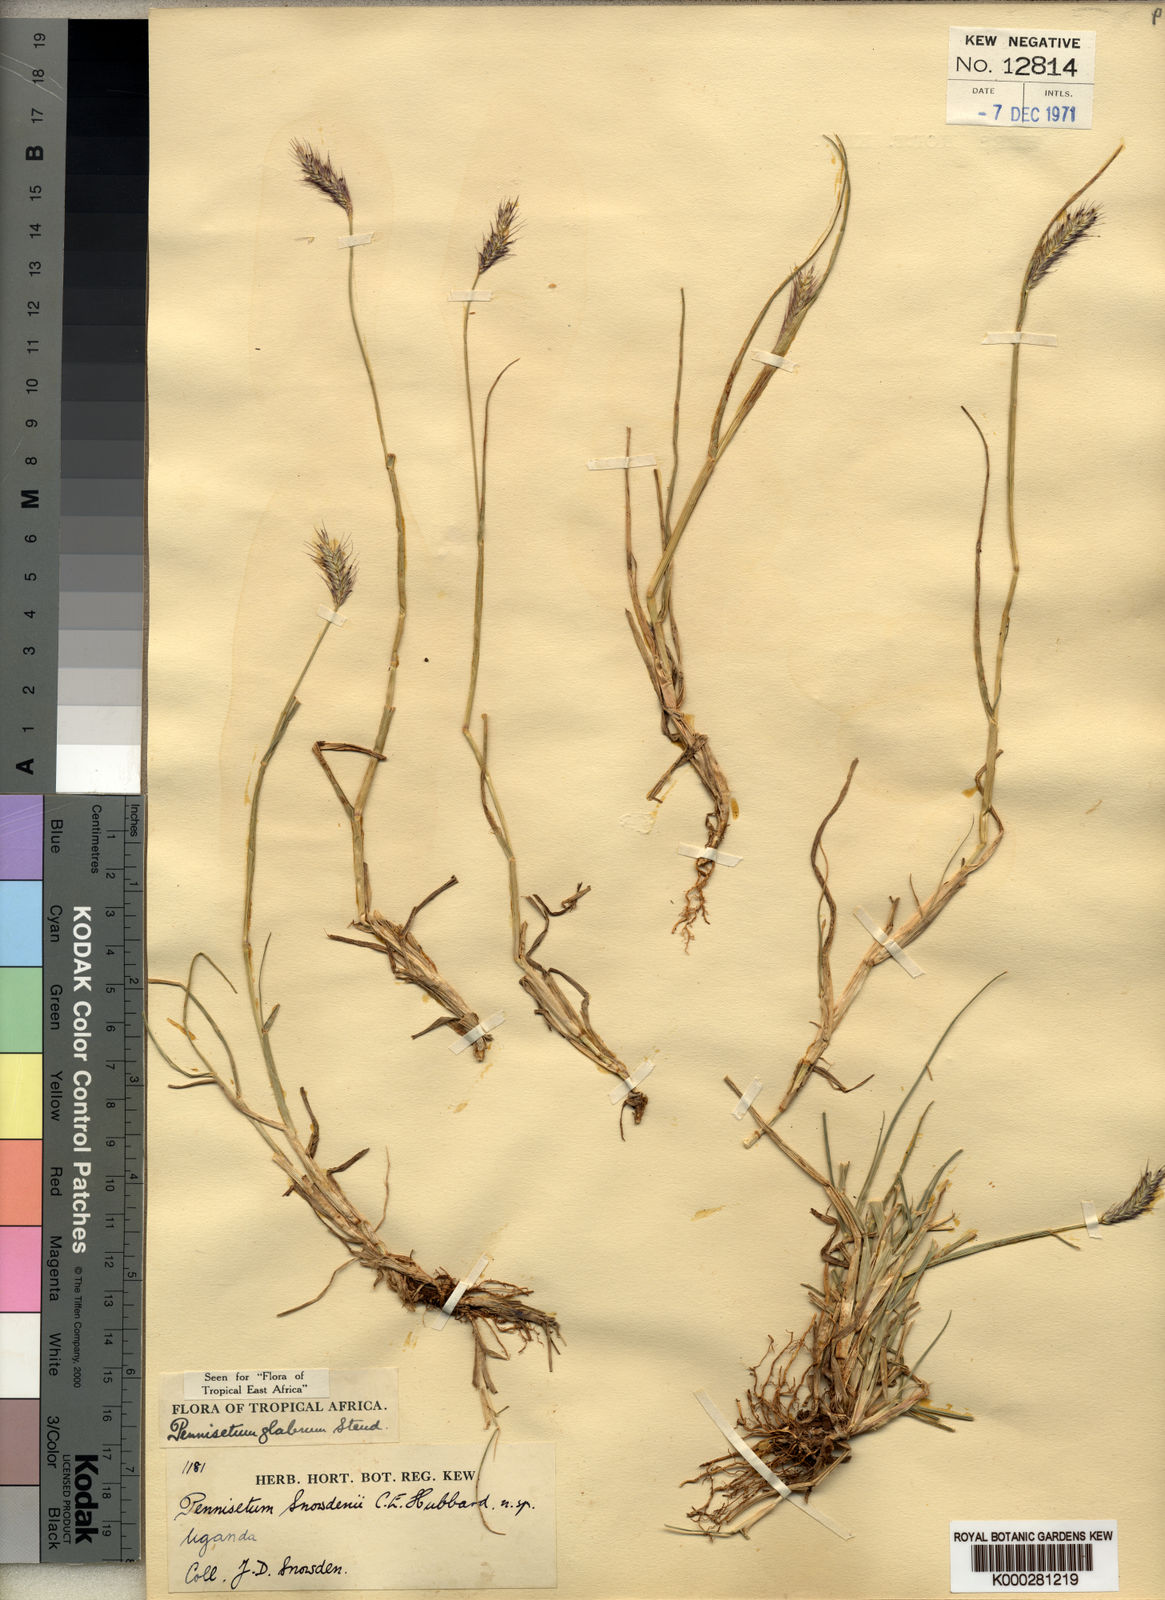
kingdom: Plantae
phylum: Tracheophyta
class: Liliopsida
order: Poales
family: Poaceae
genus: Cenchrus
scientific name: Cenchrus geniculatus
